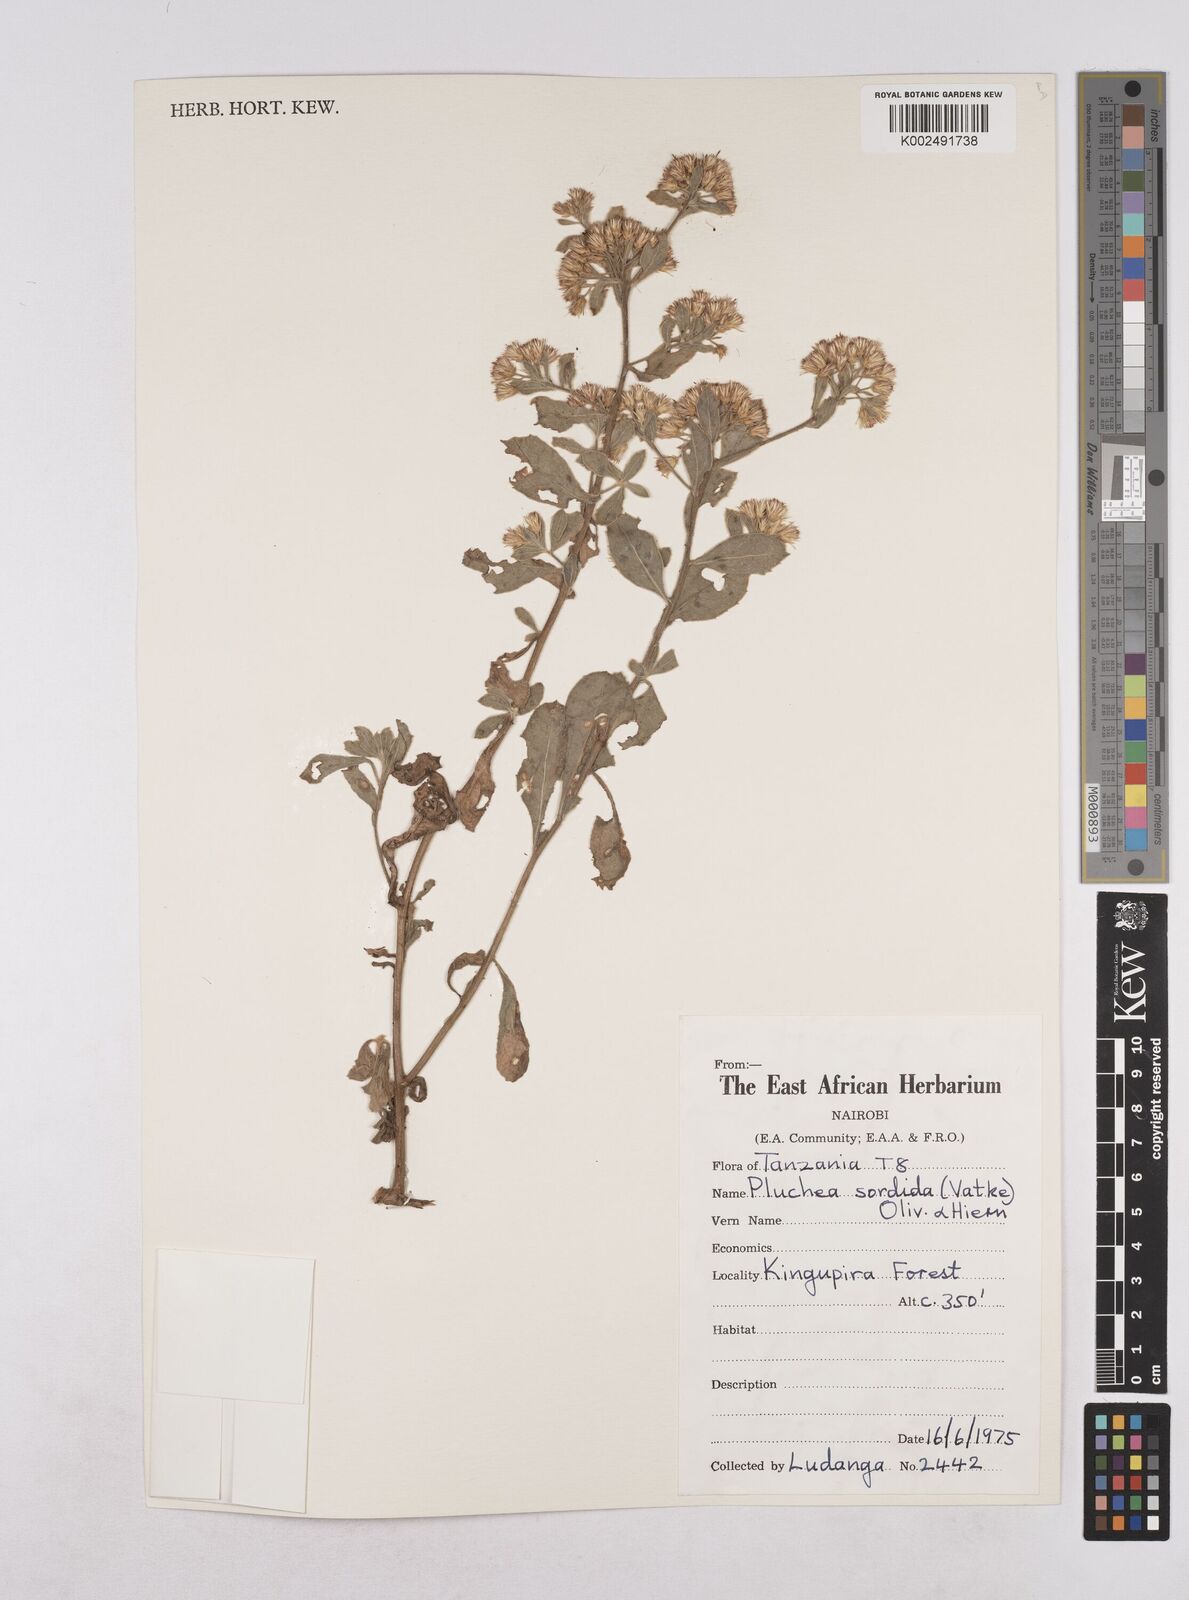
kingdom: Plantae
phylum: Tracheophyta
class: Magnoliopsida
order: Asterales
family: Asteraceae
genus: Pluchea
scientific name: Pluchea sordida
